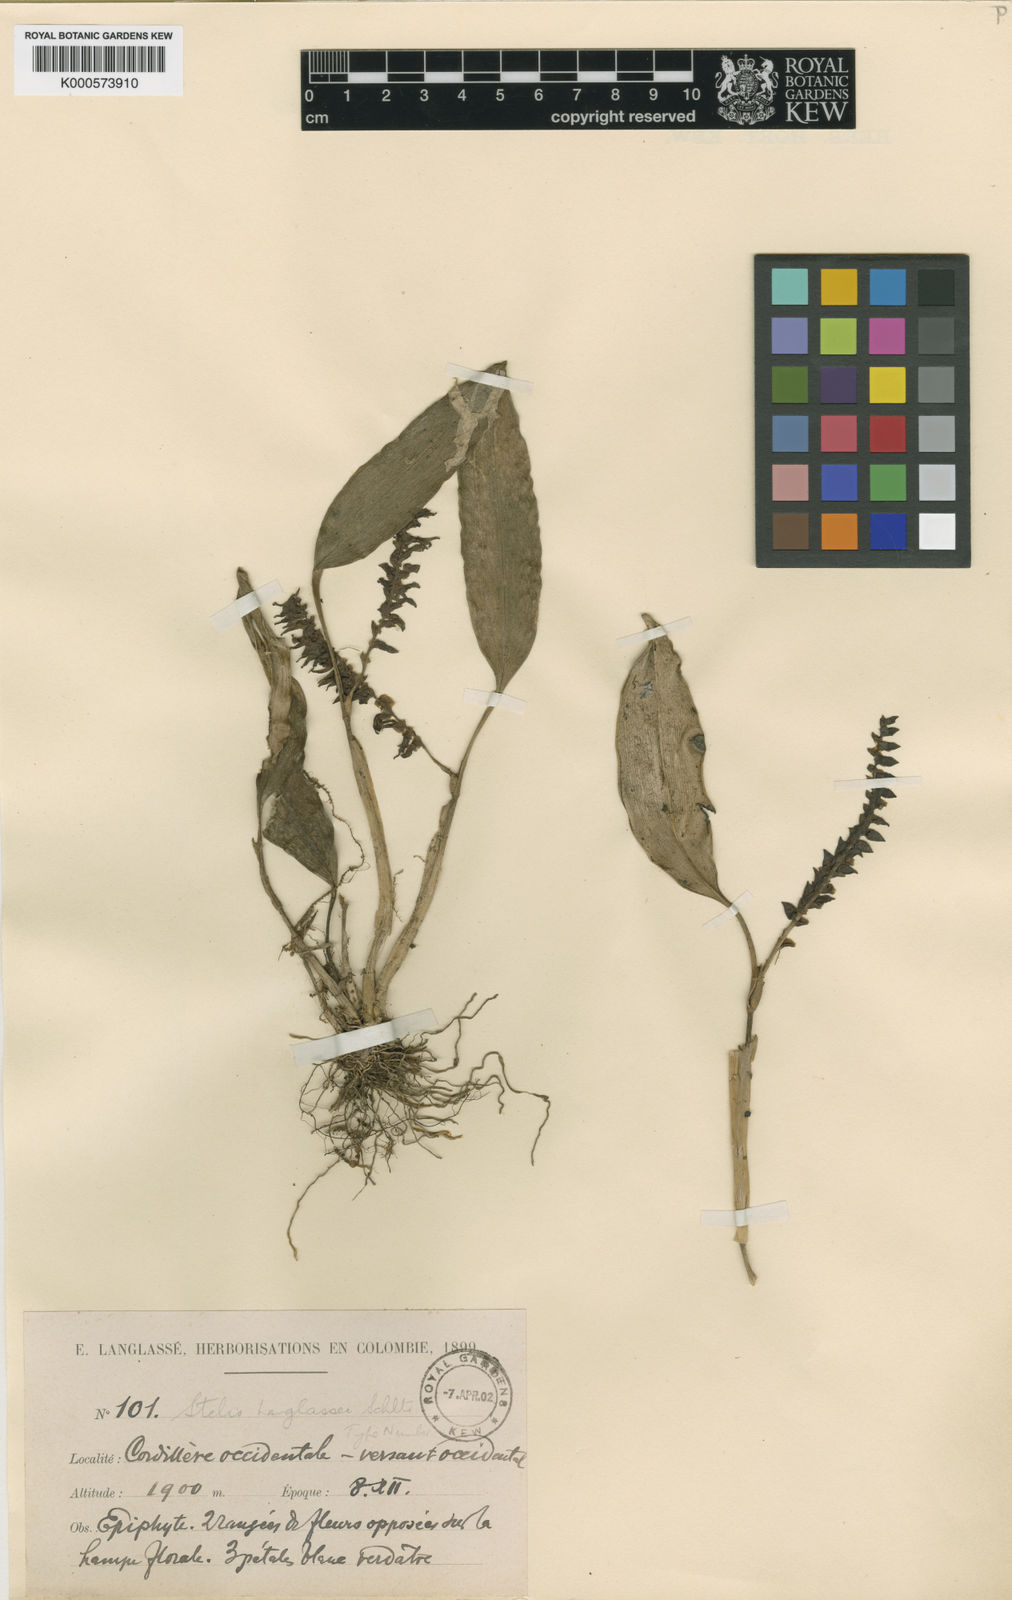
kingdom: Plantae
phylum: Tracheophyta
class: Liliopsida
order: Asparagales
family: Orchidaceae
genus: Stelis
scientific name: Stelis langlassei
